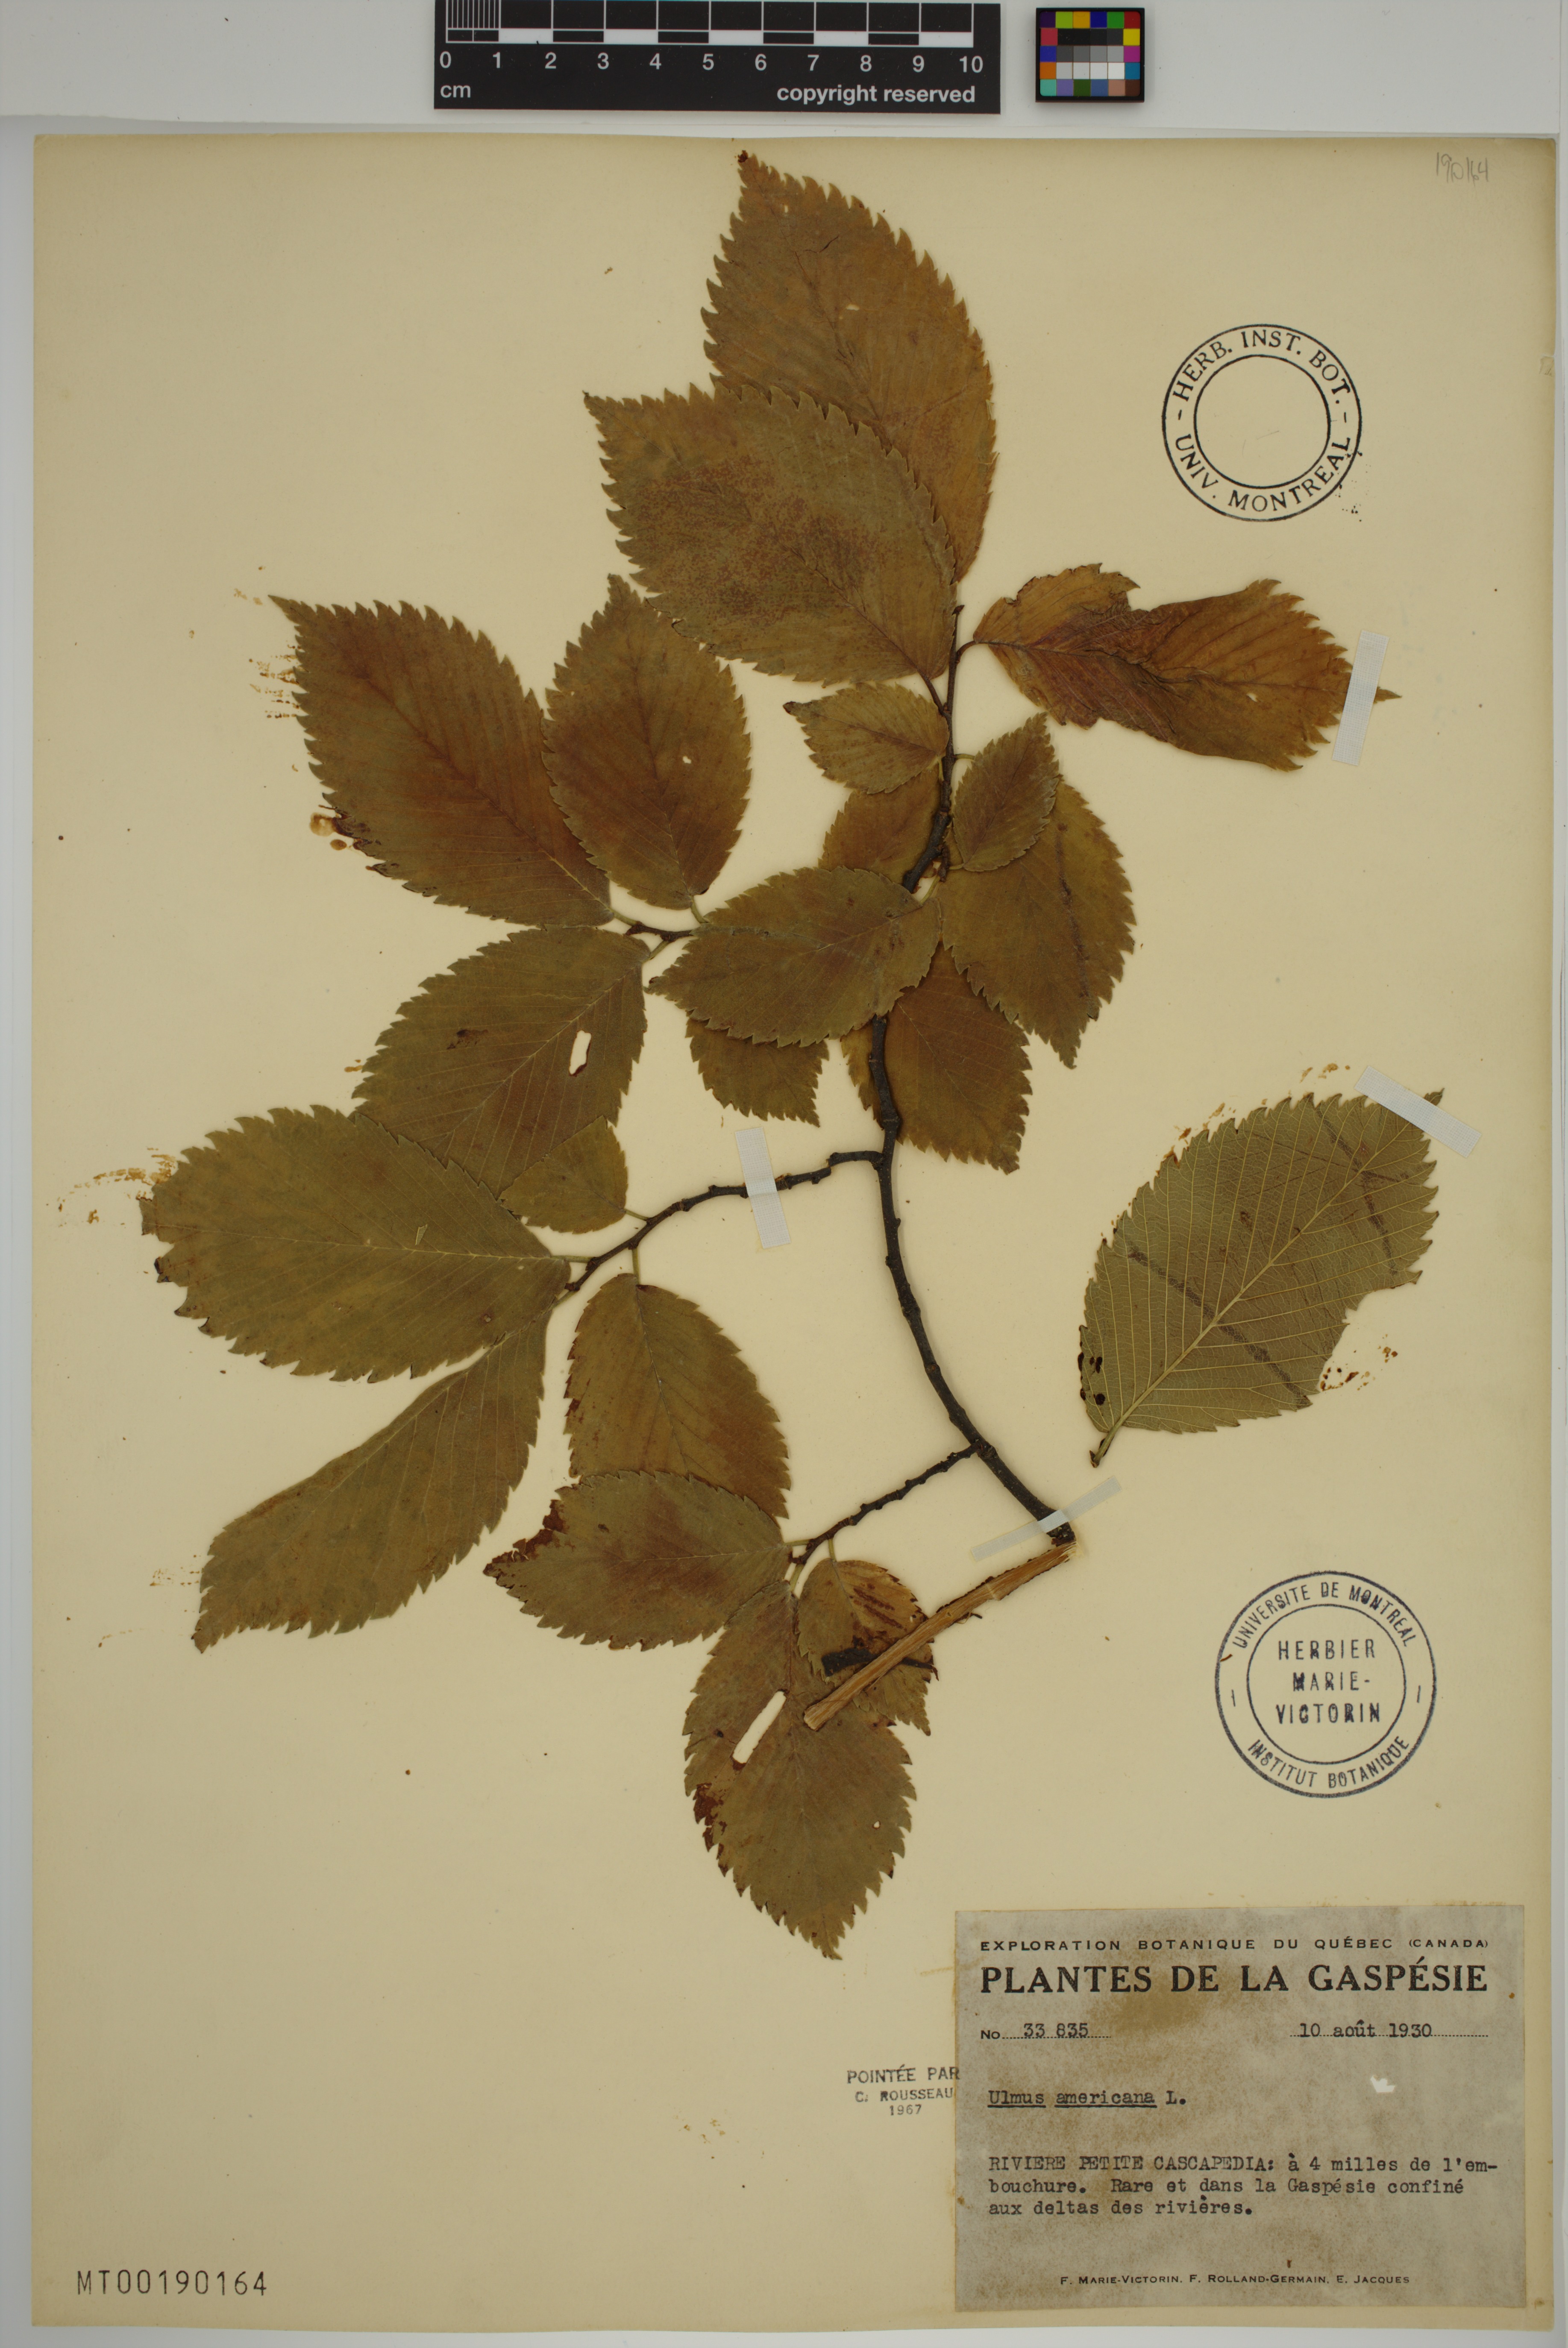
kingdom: Plantae
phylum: Tracheophyta
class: Magnoliopsida
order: Rosales
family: Ulmaceae
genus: Ulmus
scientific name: Ulmus americana
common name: American elm
